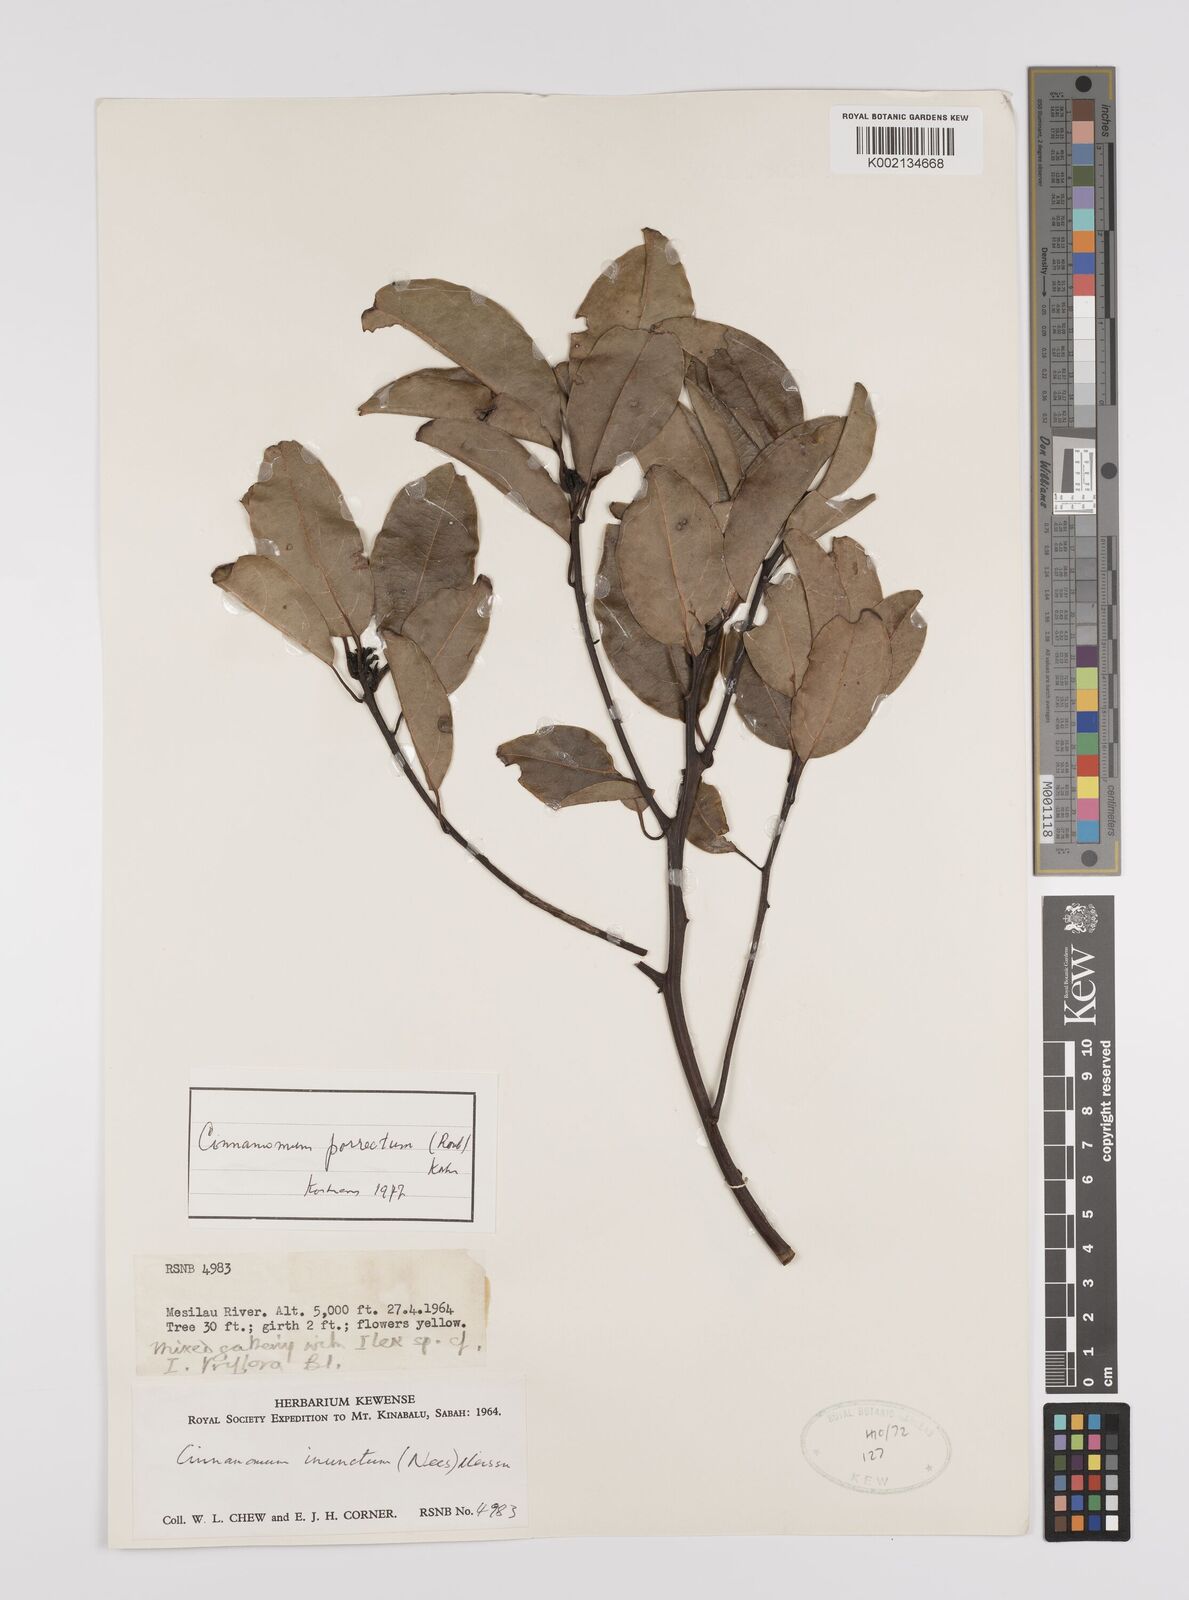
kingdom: Plantae
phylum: Tracheophyta
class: Magnoliopsida
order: Laurales
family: Lauraceae
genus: Cinnamomum
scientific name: Cinnamomum parthenoxylon
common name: Martaban camphor wood
